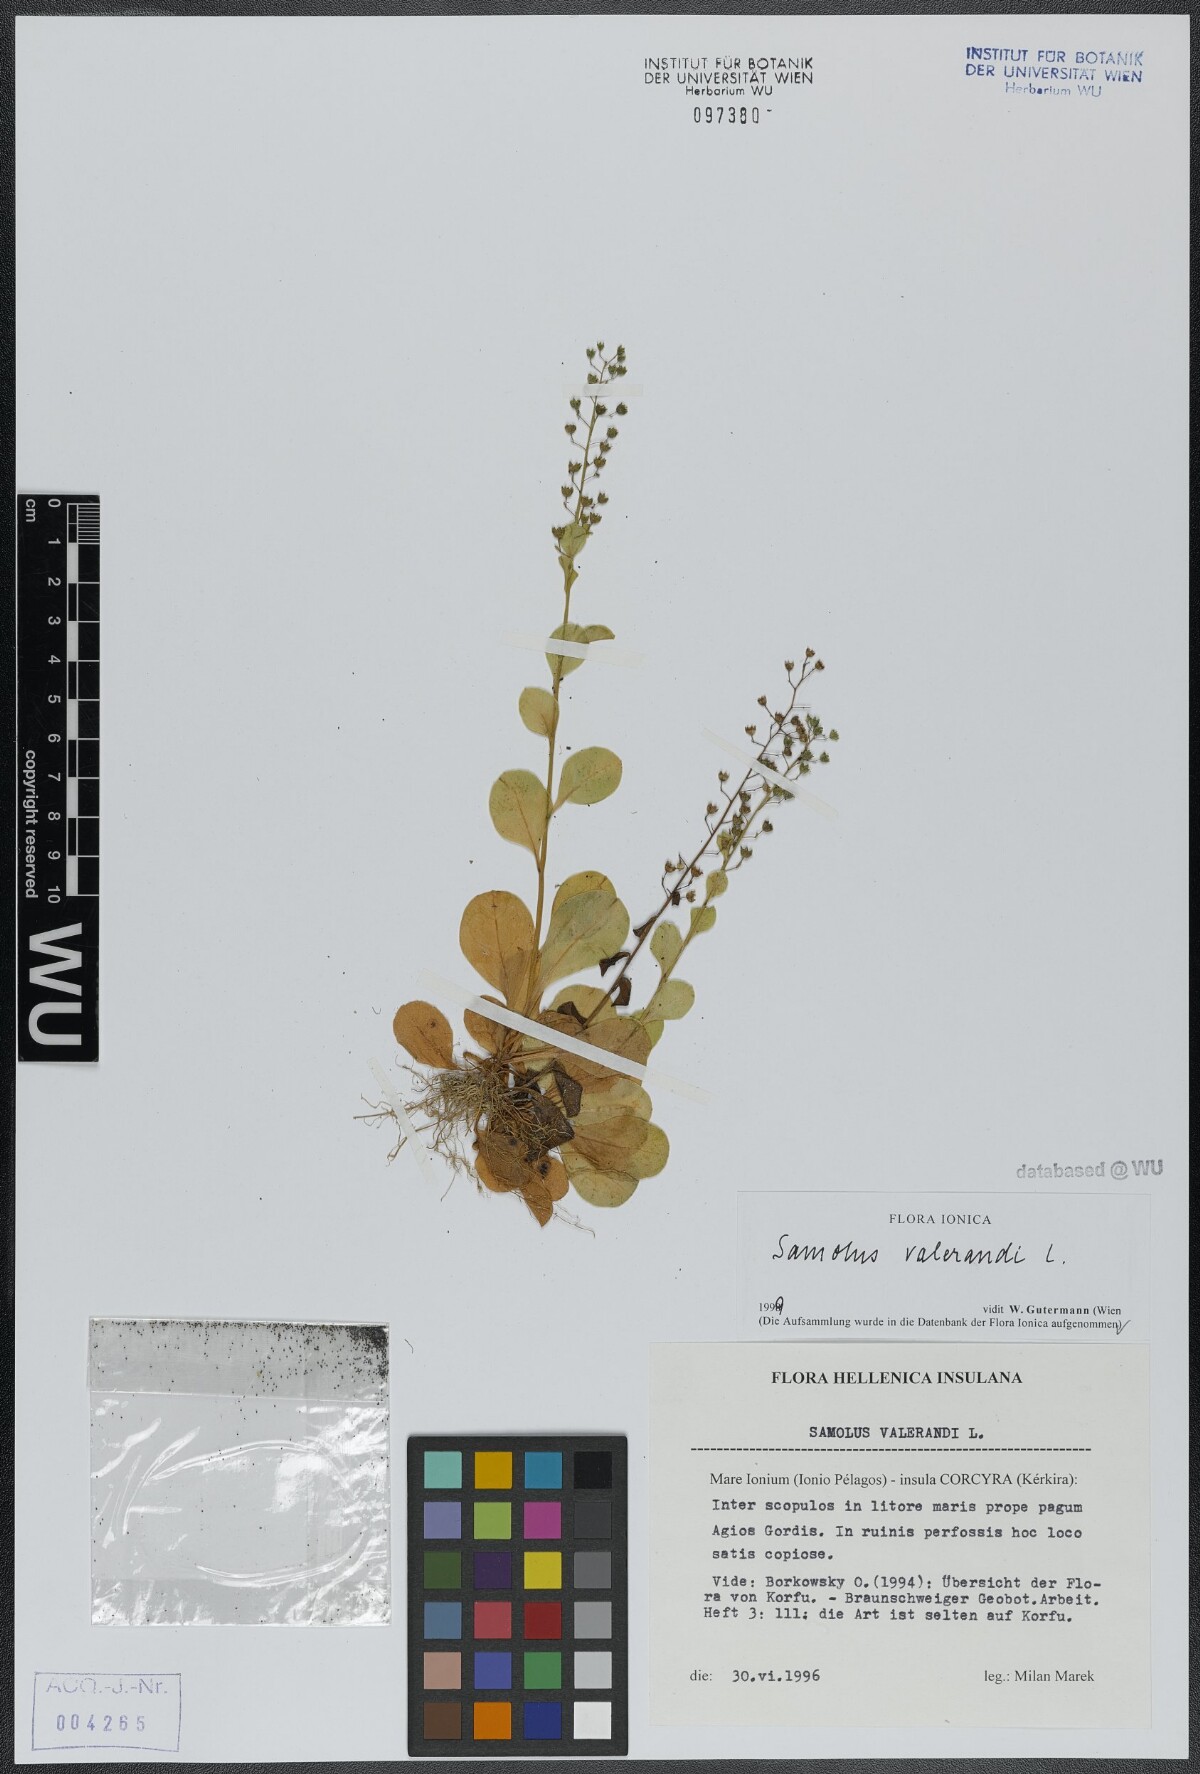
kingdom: Plantae
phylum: Tracheophyta
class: Magnoliopsida
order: Ericales
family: Primulaceae
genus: Samolus
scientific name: Samolus valerandi
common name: Brookweed
